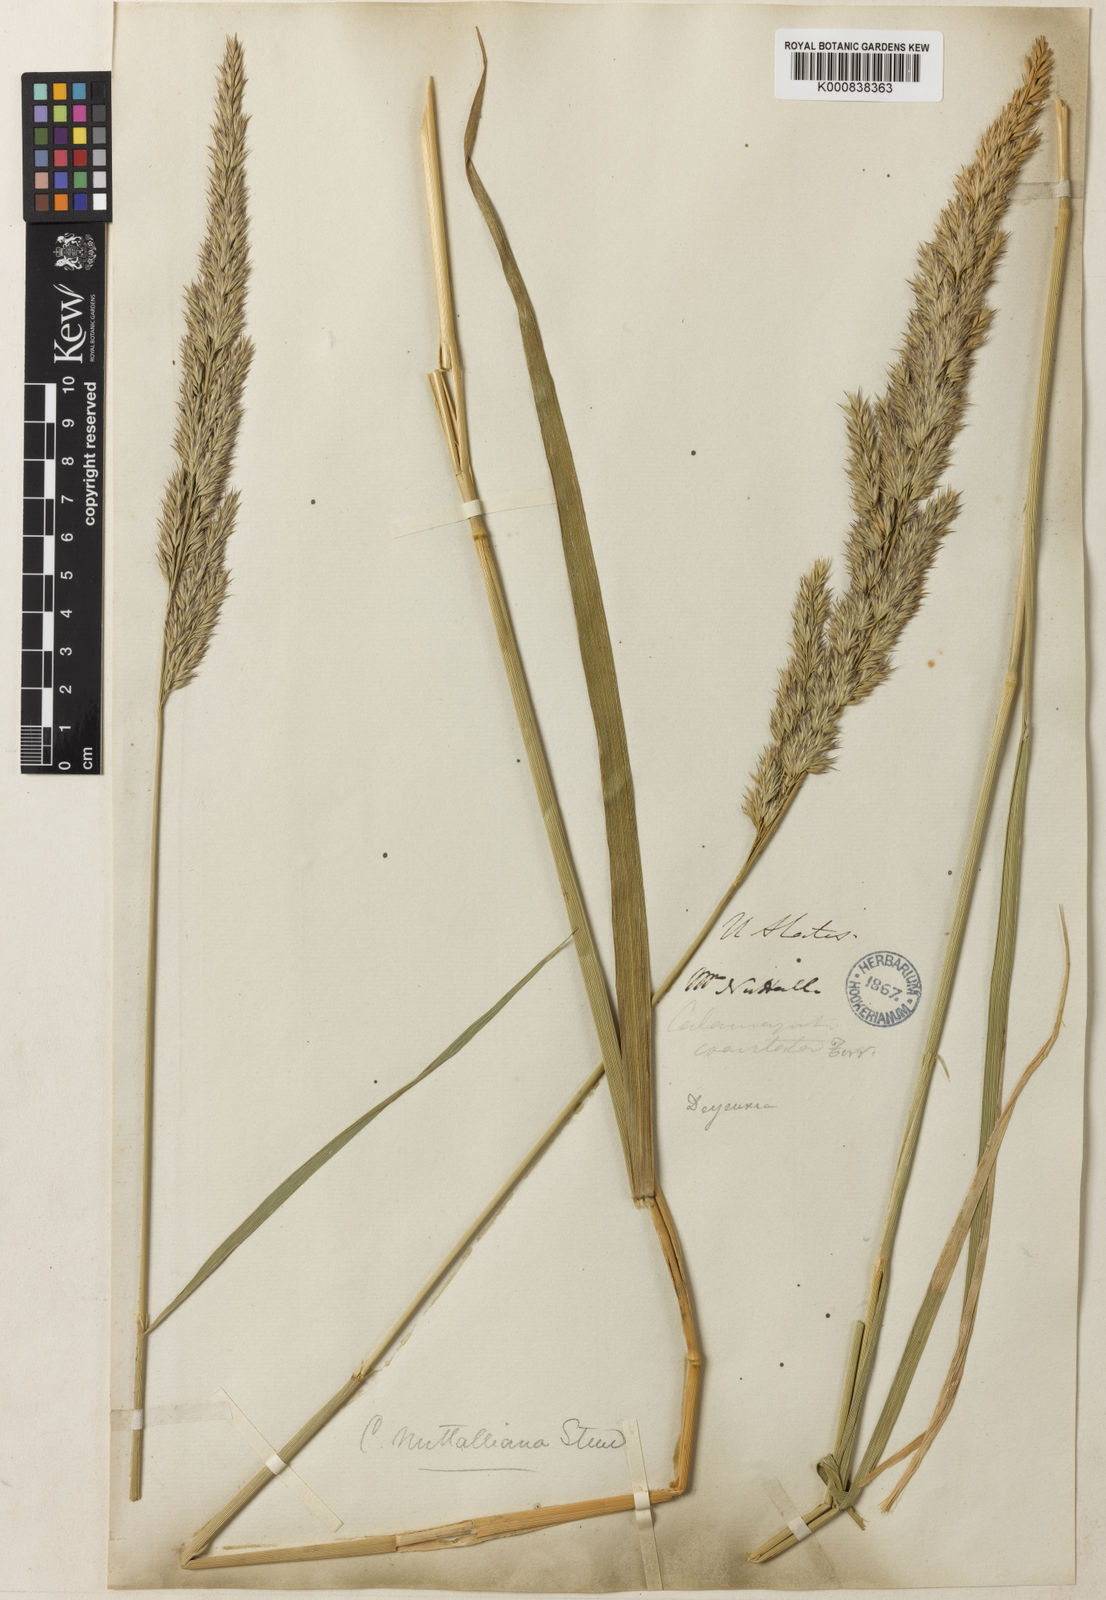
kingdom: Plantae
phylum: Tracheophyta
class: Liliopsida
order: Poales
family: Poaceae
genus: Calamagrostis
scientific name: Calamagrostis canadensis
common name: Canada bluejoint
